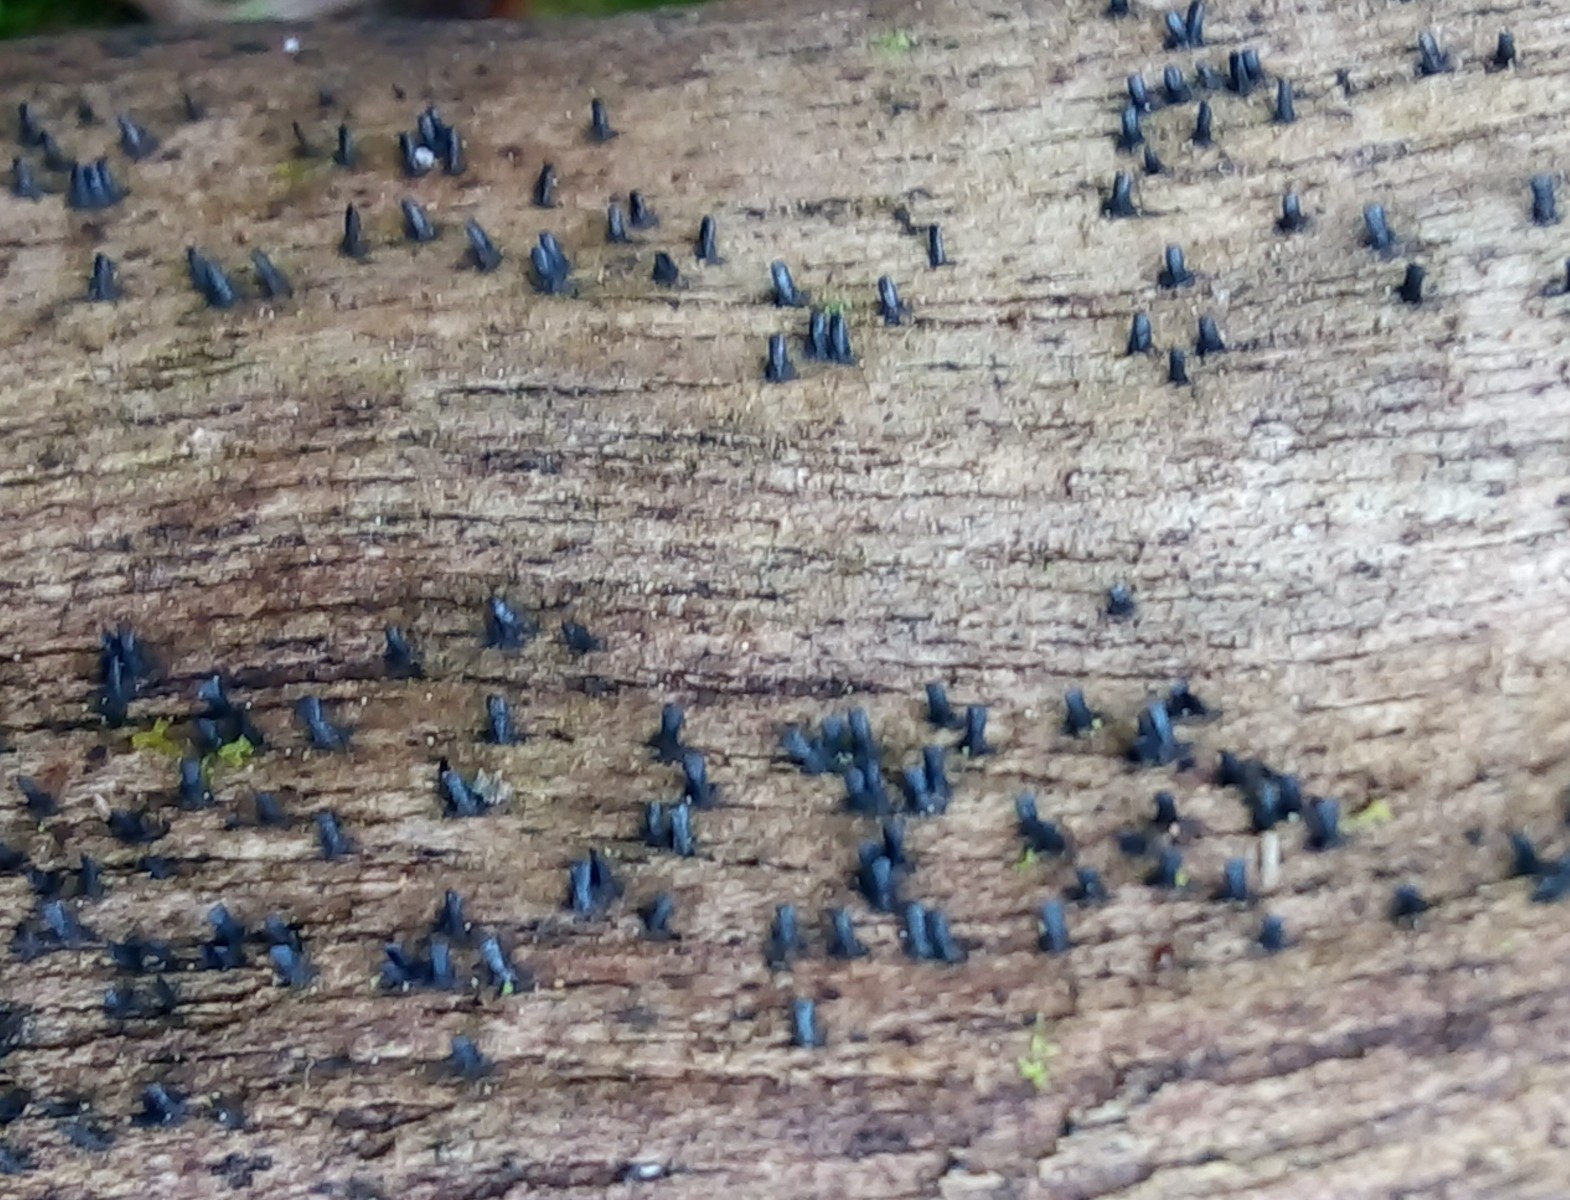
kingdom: Fungi
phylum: Ascomycota
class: Eurotiomycetes
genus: Glyphium
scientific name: Glyphium elatum
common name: kuløkse
